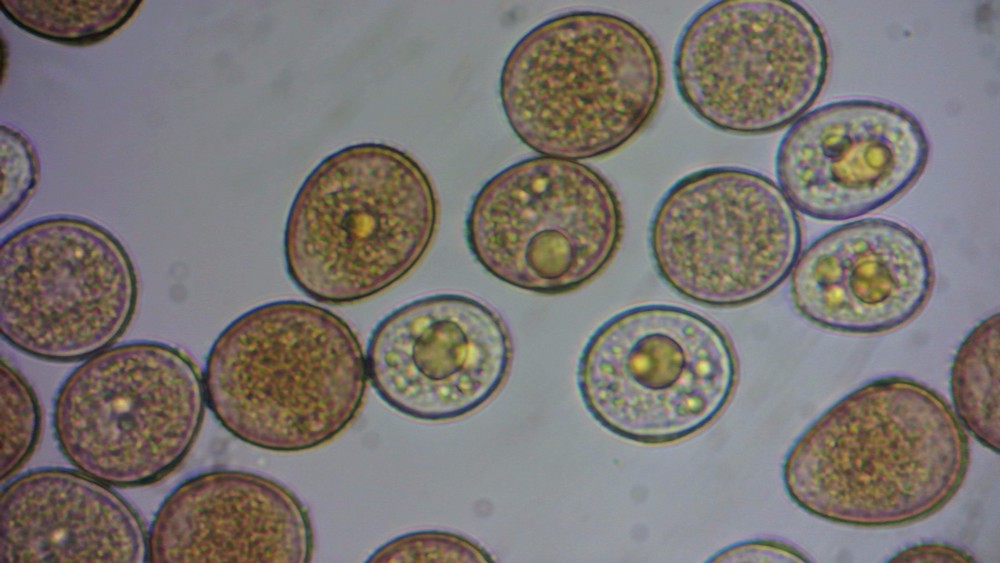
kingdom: Fungi
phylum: Basidiomycota
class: Pucciniomycetes
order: Pucciniales
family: Pucciniaceae
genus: Uromyces
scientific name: Uromyces
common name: encellerust
